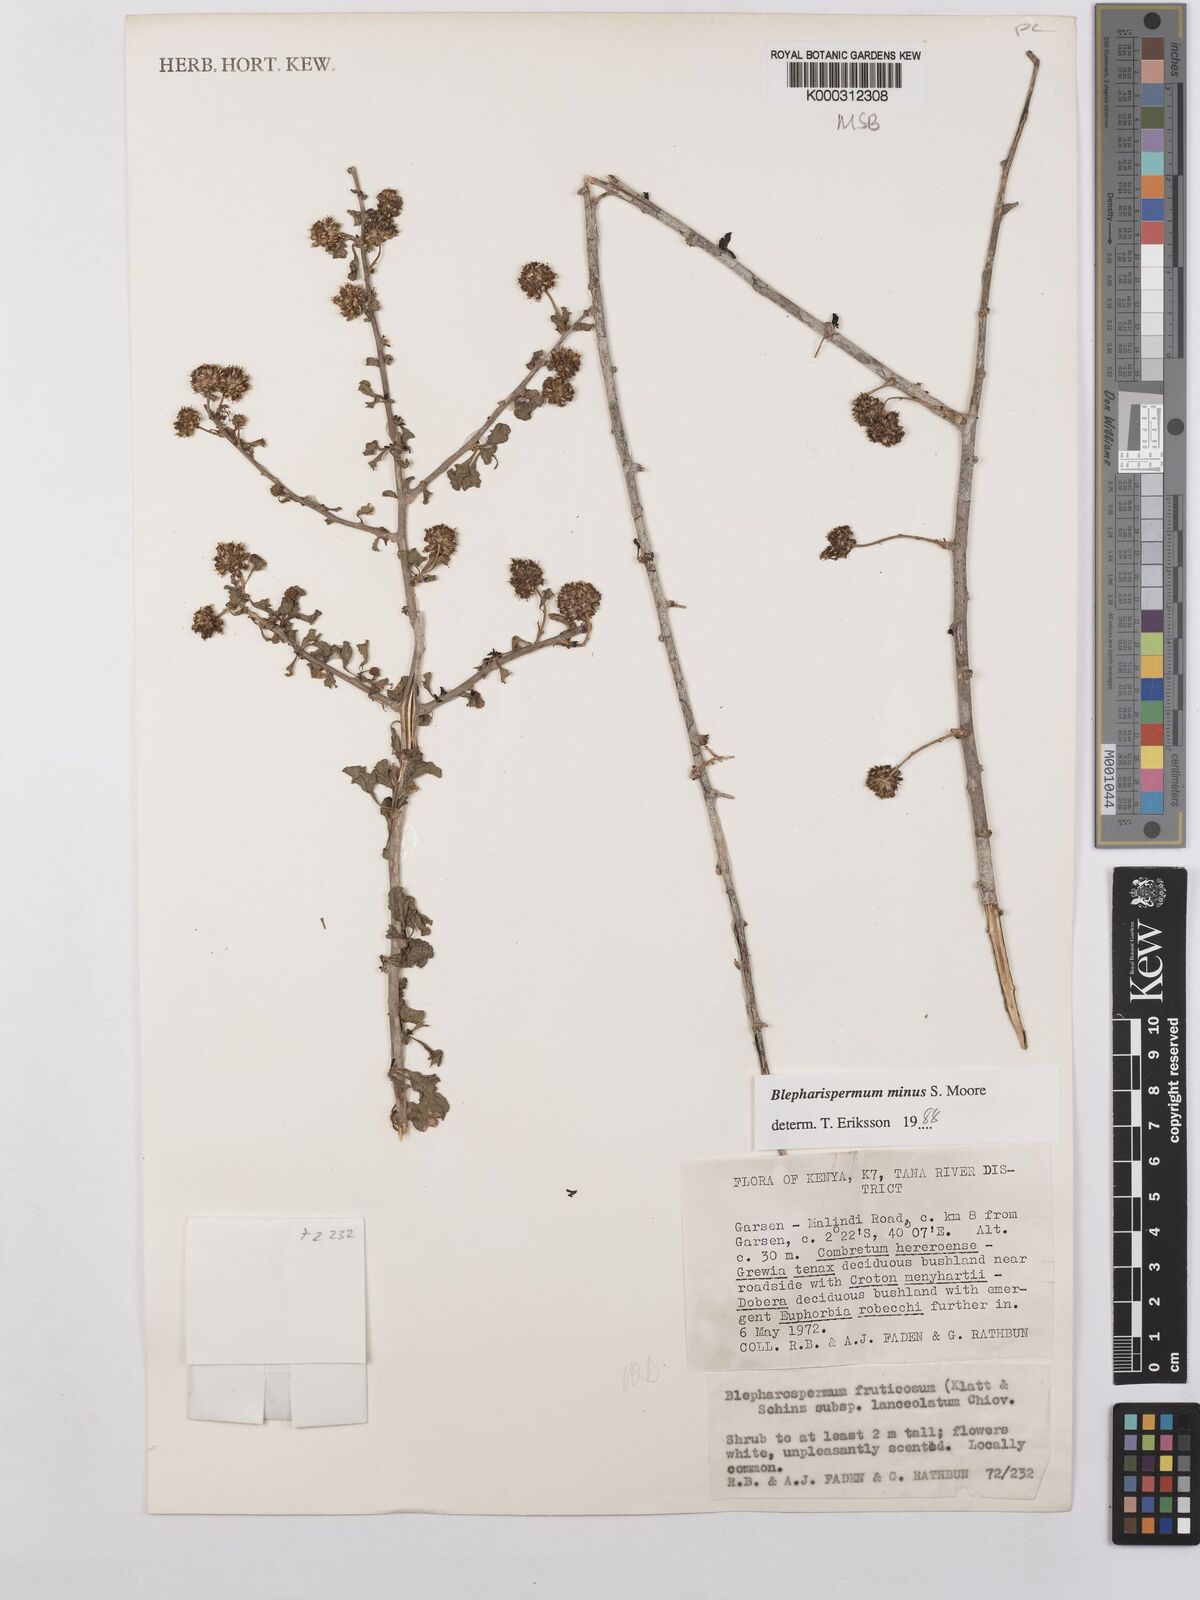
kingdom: Plantae
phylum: Tracheophyta
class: Magnoliopsida
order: Asterales
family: Asteraceae
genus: Blepharispermum
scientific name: Blepharispermum minus
